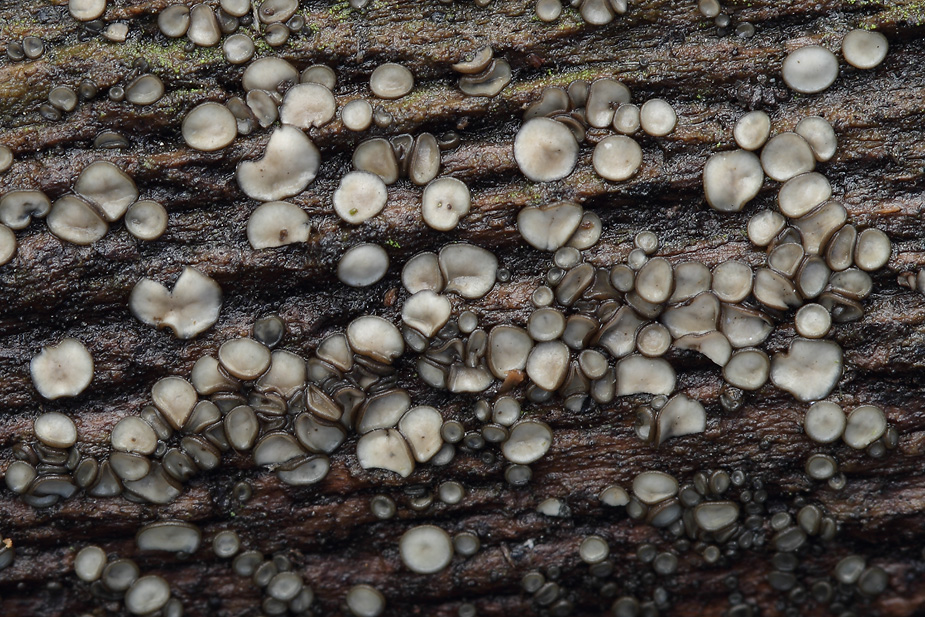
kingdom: Fungi
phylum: Ascomycota
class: Leotiomycetes
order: Helotiales
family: Mollisiaceae
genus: Mollisia
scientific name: Mollisia
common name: gråskive
